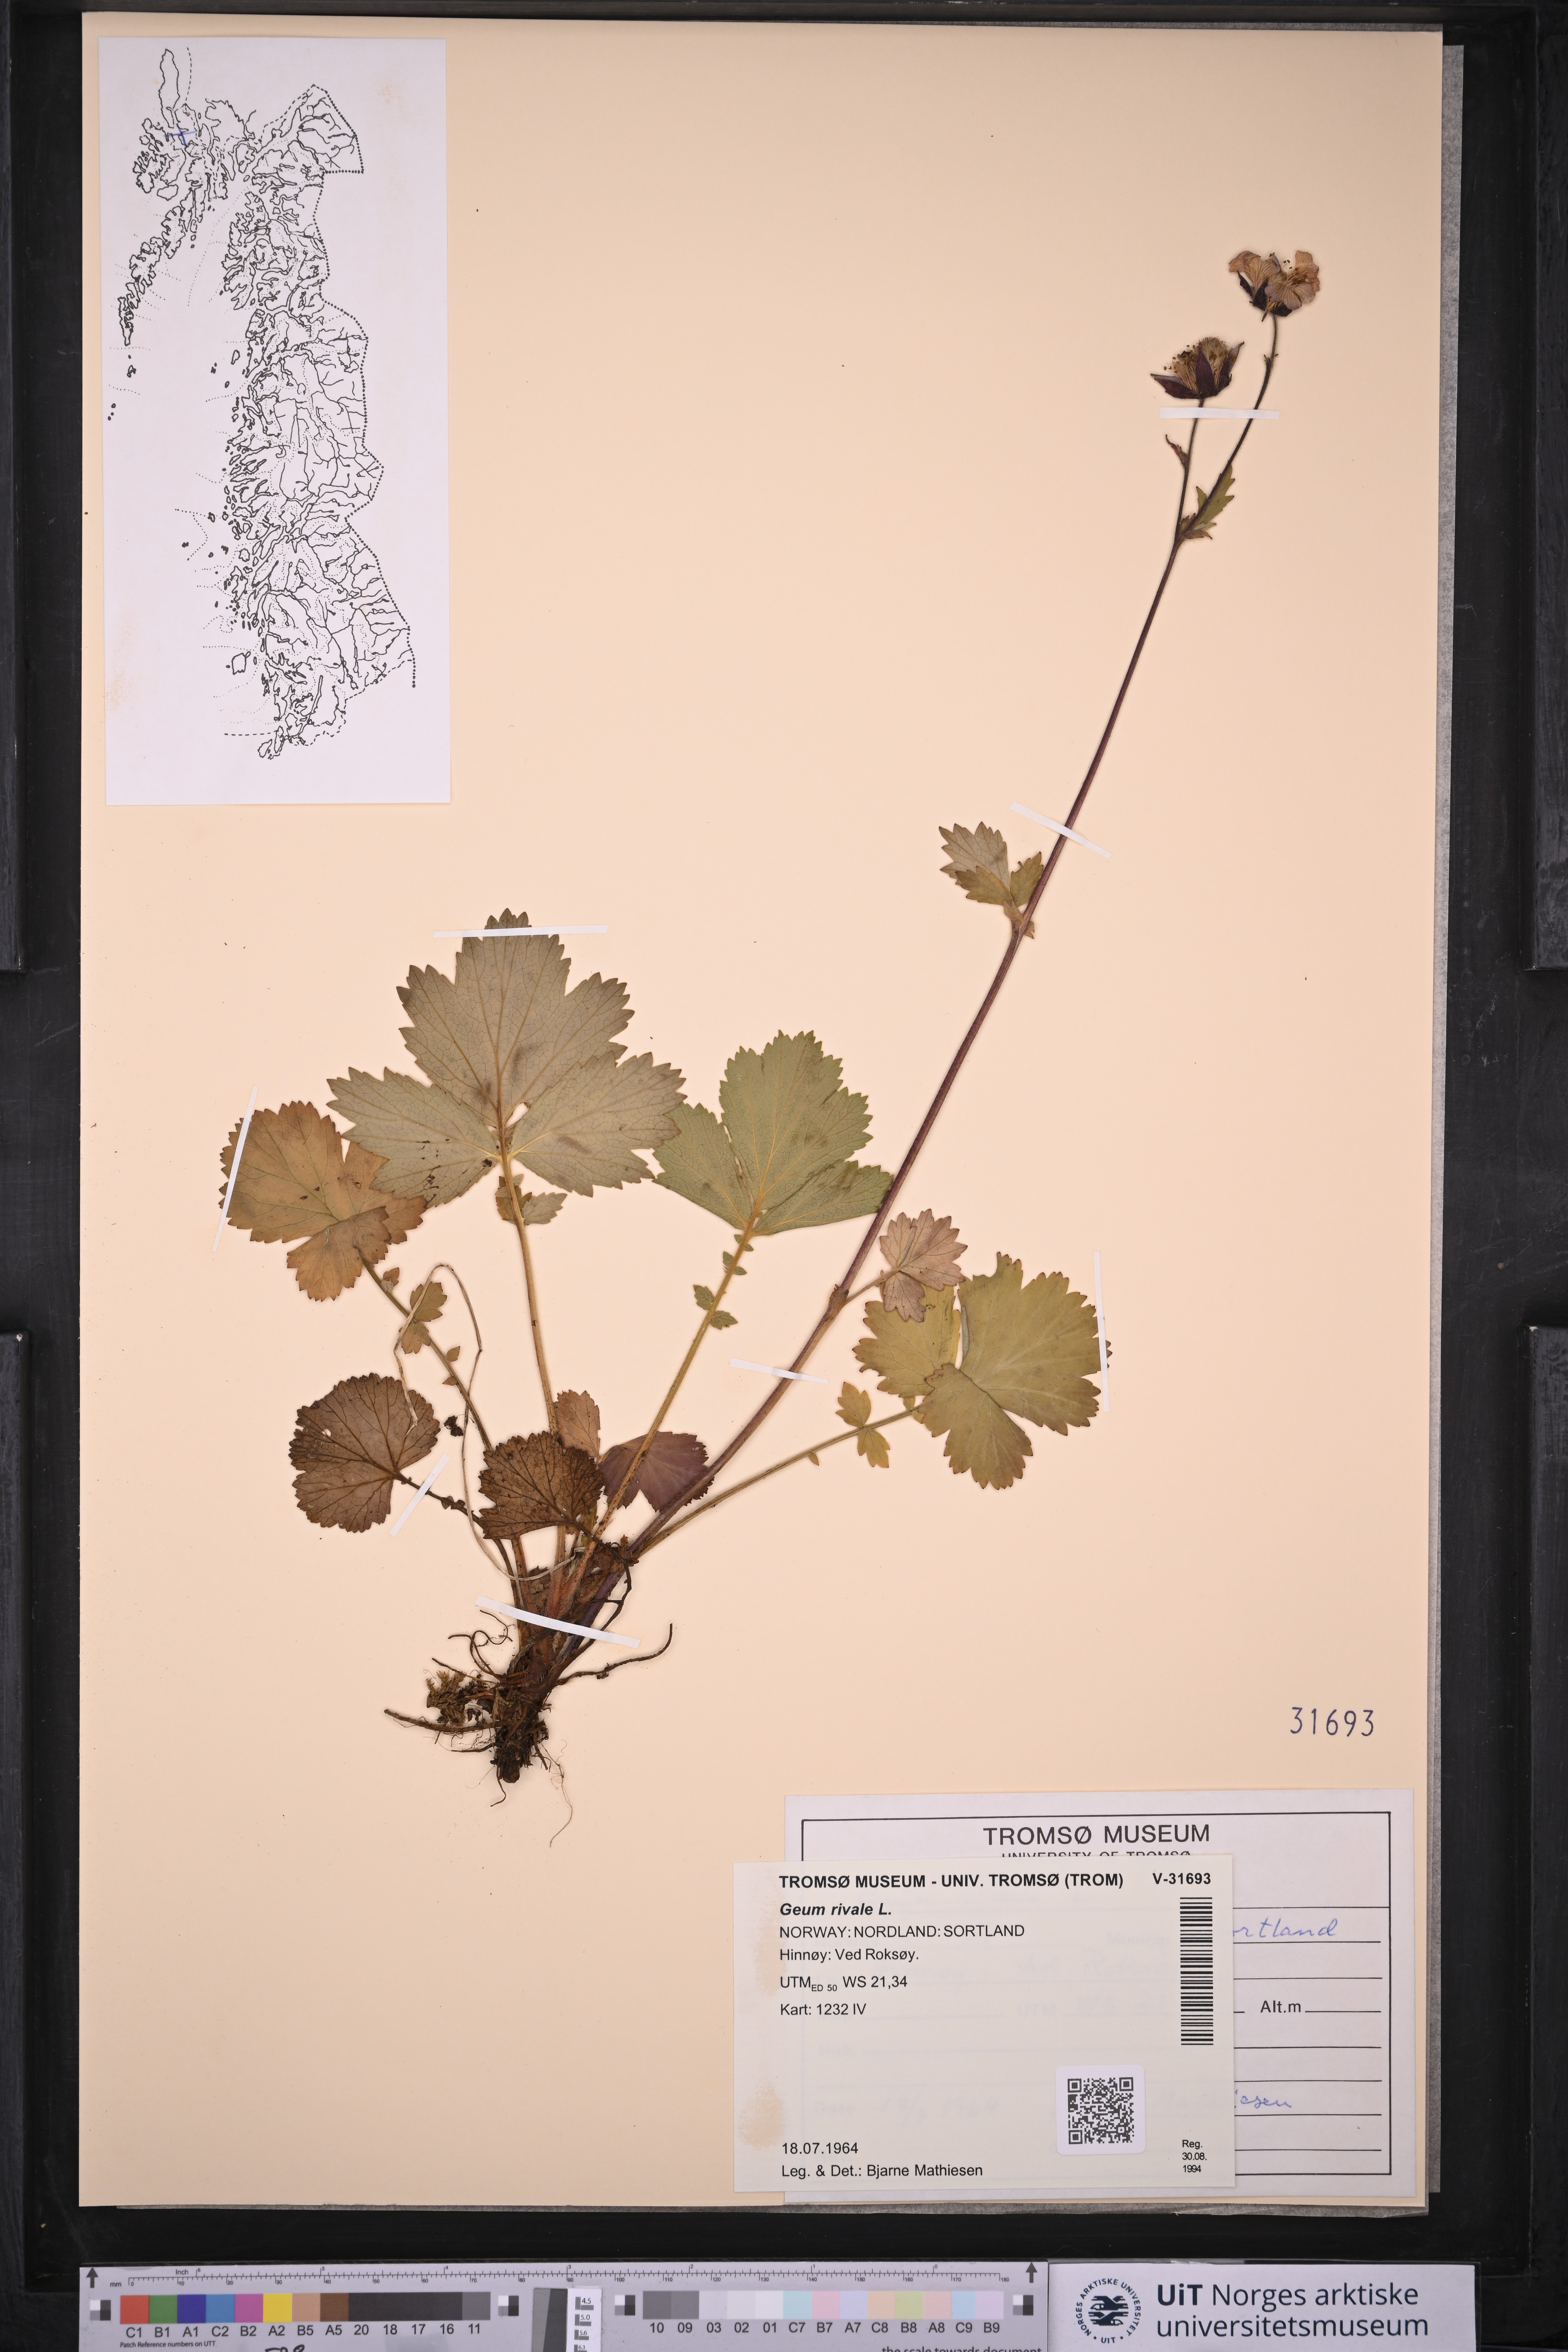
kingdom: Plantae
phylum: Tracheophyta
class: Magnoliopsida
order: Rosales
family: Rosaceae
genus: Geum
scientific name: Geum rivale
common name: Water avens
